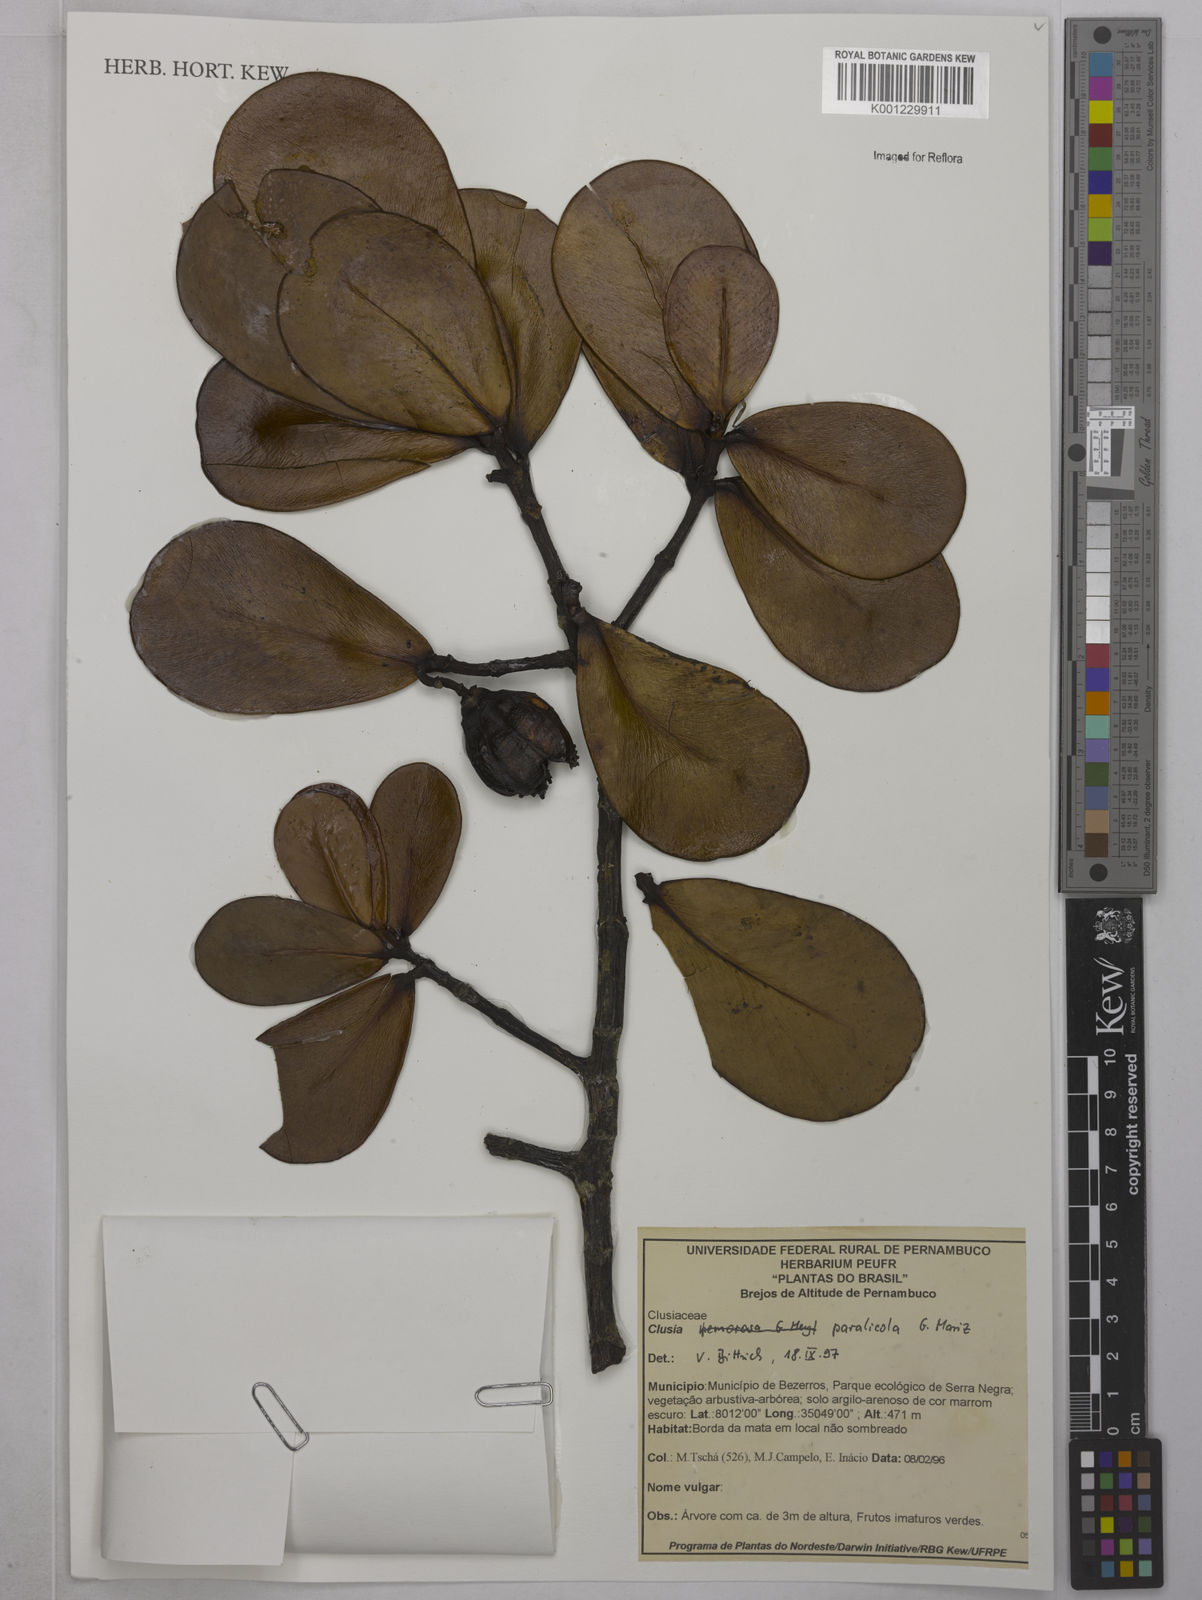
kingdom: Plantae
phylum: Tracheophyta
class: Magnoliopsida
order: Malpighiales
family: Clusiaceae
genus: Clusia
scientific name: Clusia paralicola
